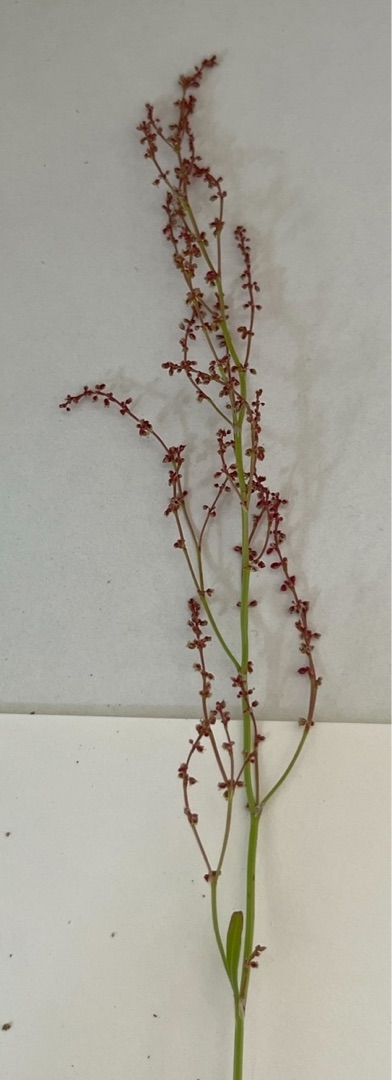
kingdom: Plantae
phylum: Tracheophyta
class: Magnoliopsida
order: Caryophyllales
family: Polygonaceae
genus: Rumex
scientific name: Rumex acetosella
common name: Rødknæ
